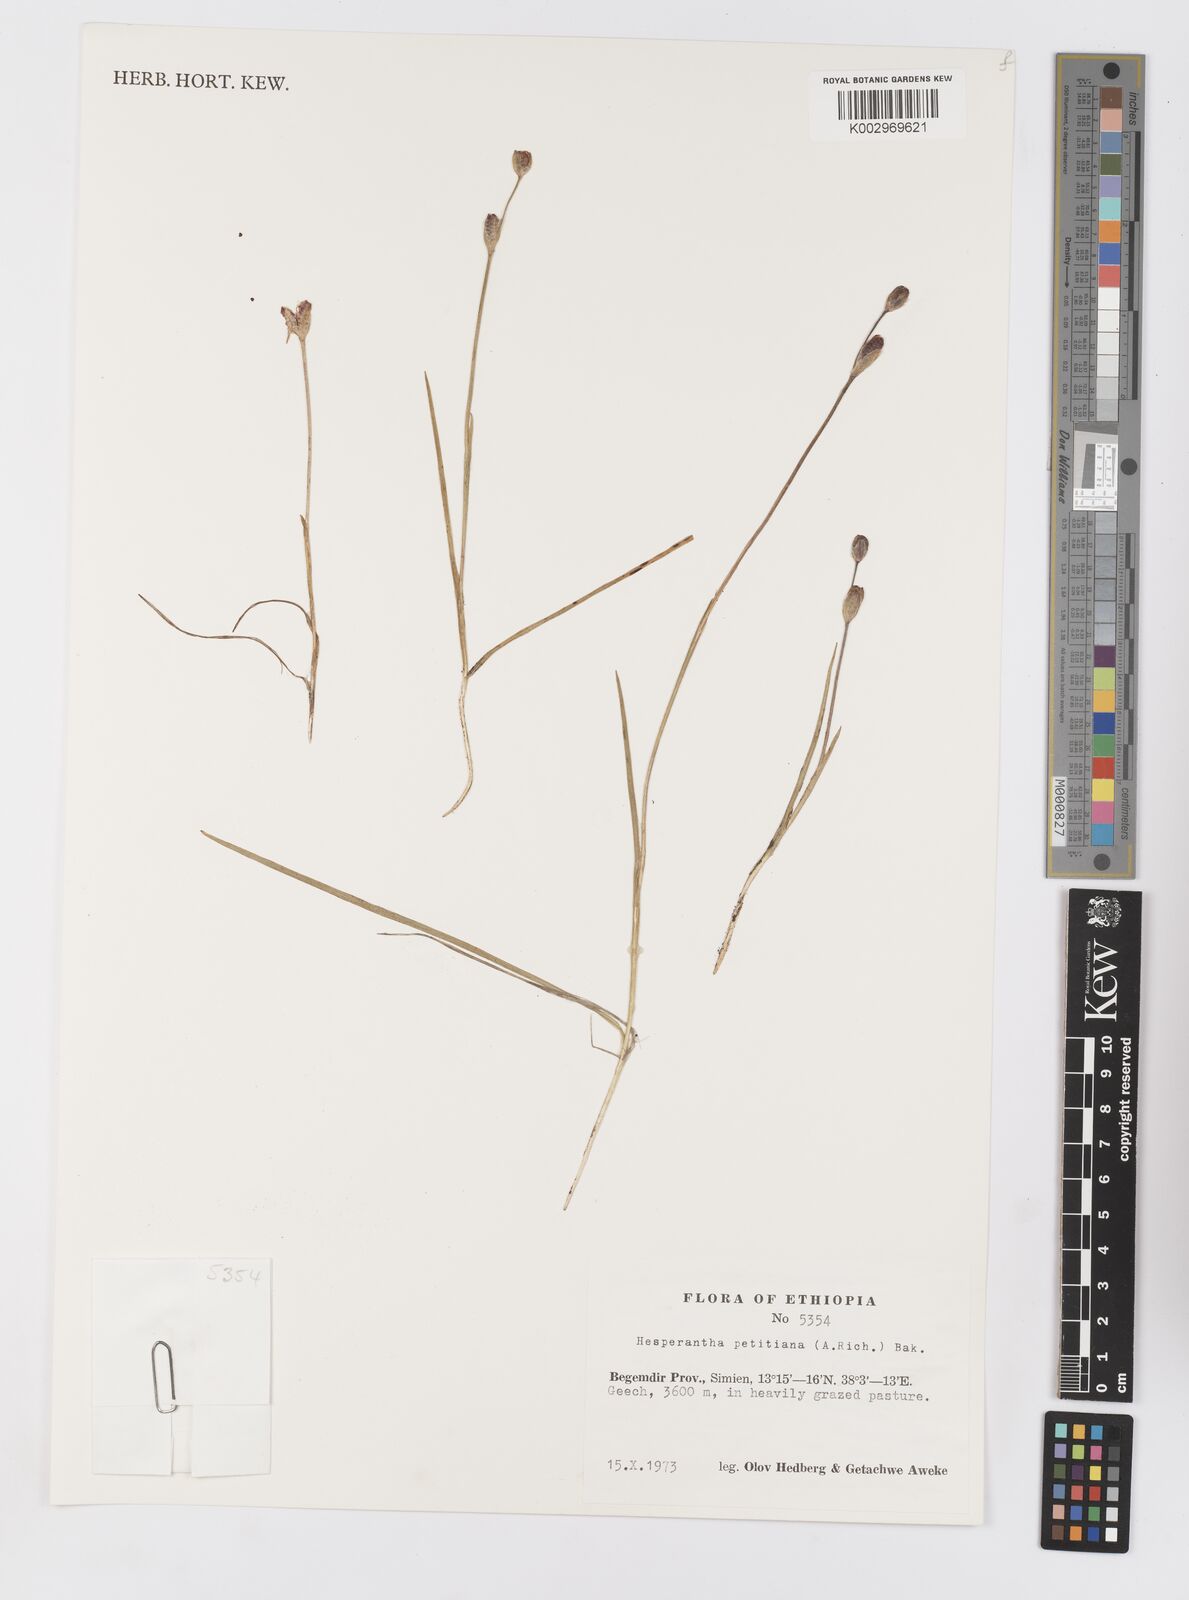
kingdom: Plantae
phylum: Tracheophyta
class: Liliopsida
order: Asparagales
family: Iridaceae
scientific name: Iridaceae
